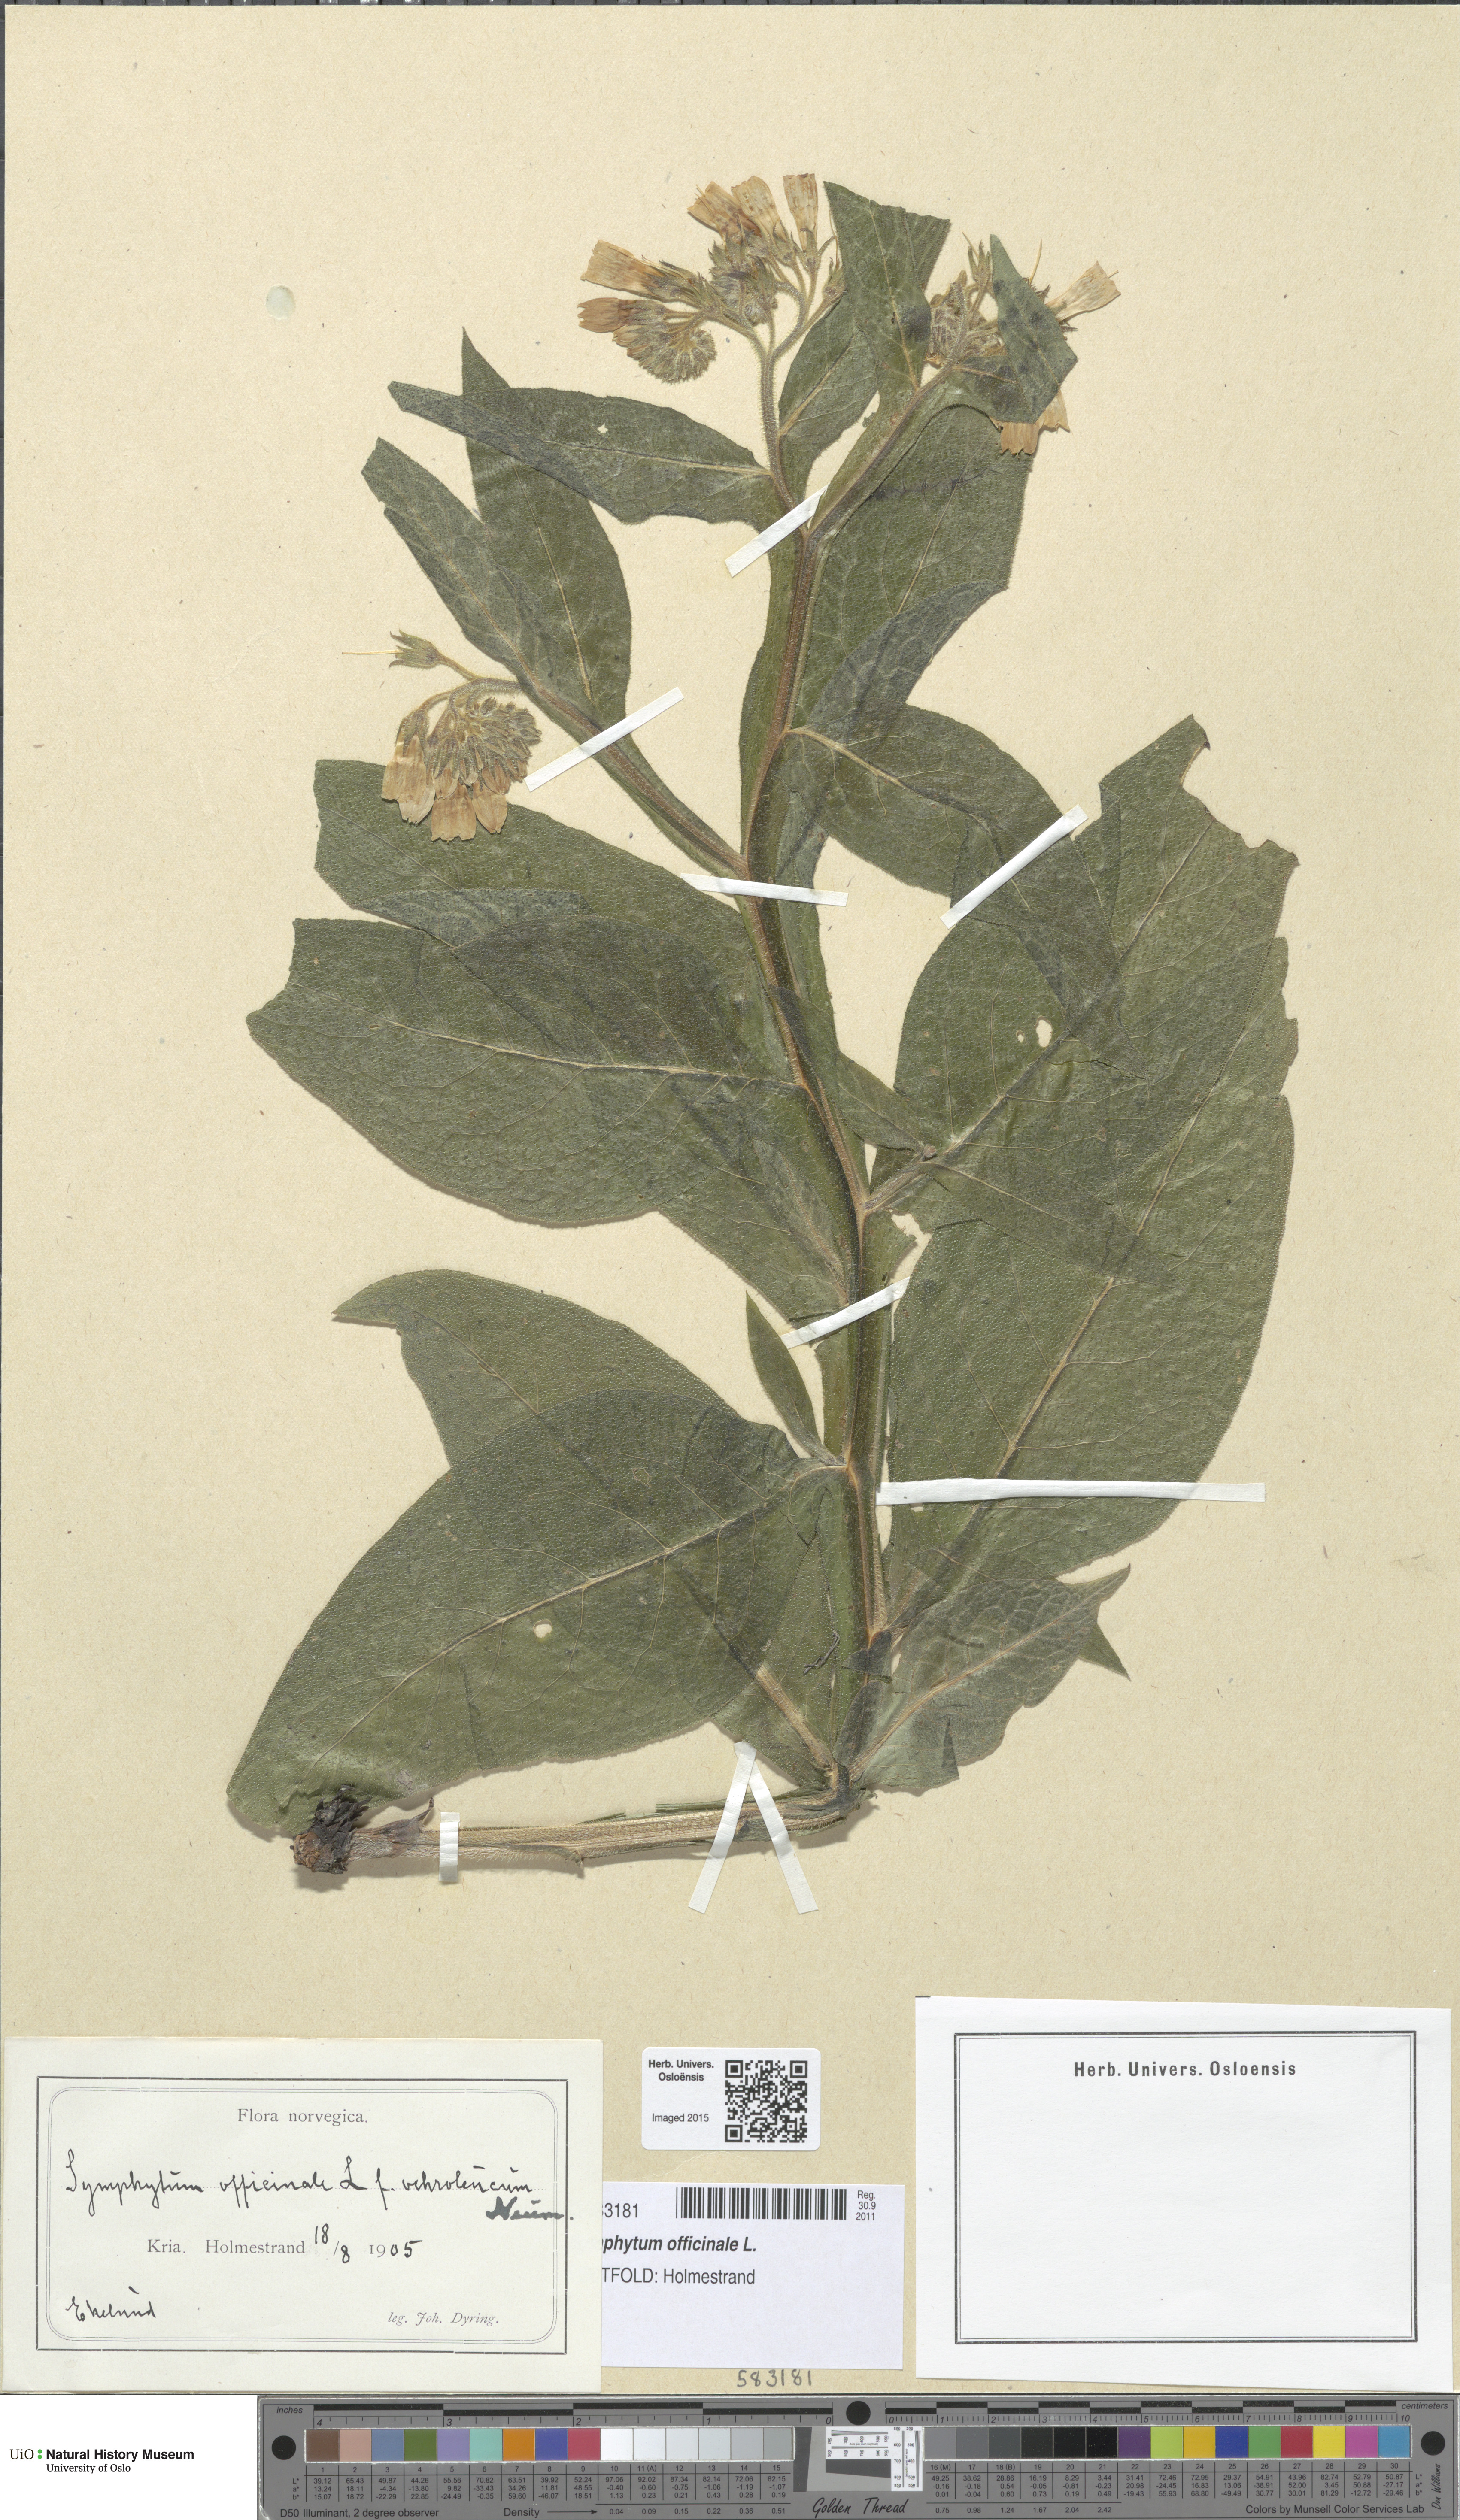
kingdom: Plantae
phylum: Tracheophyta
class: Magnoliopsida
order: Boraginales
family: Boraginaceae
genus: Symphytum
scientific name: Symphytum officinale
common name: Common comfrey
